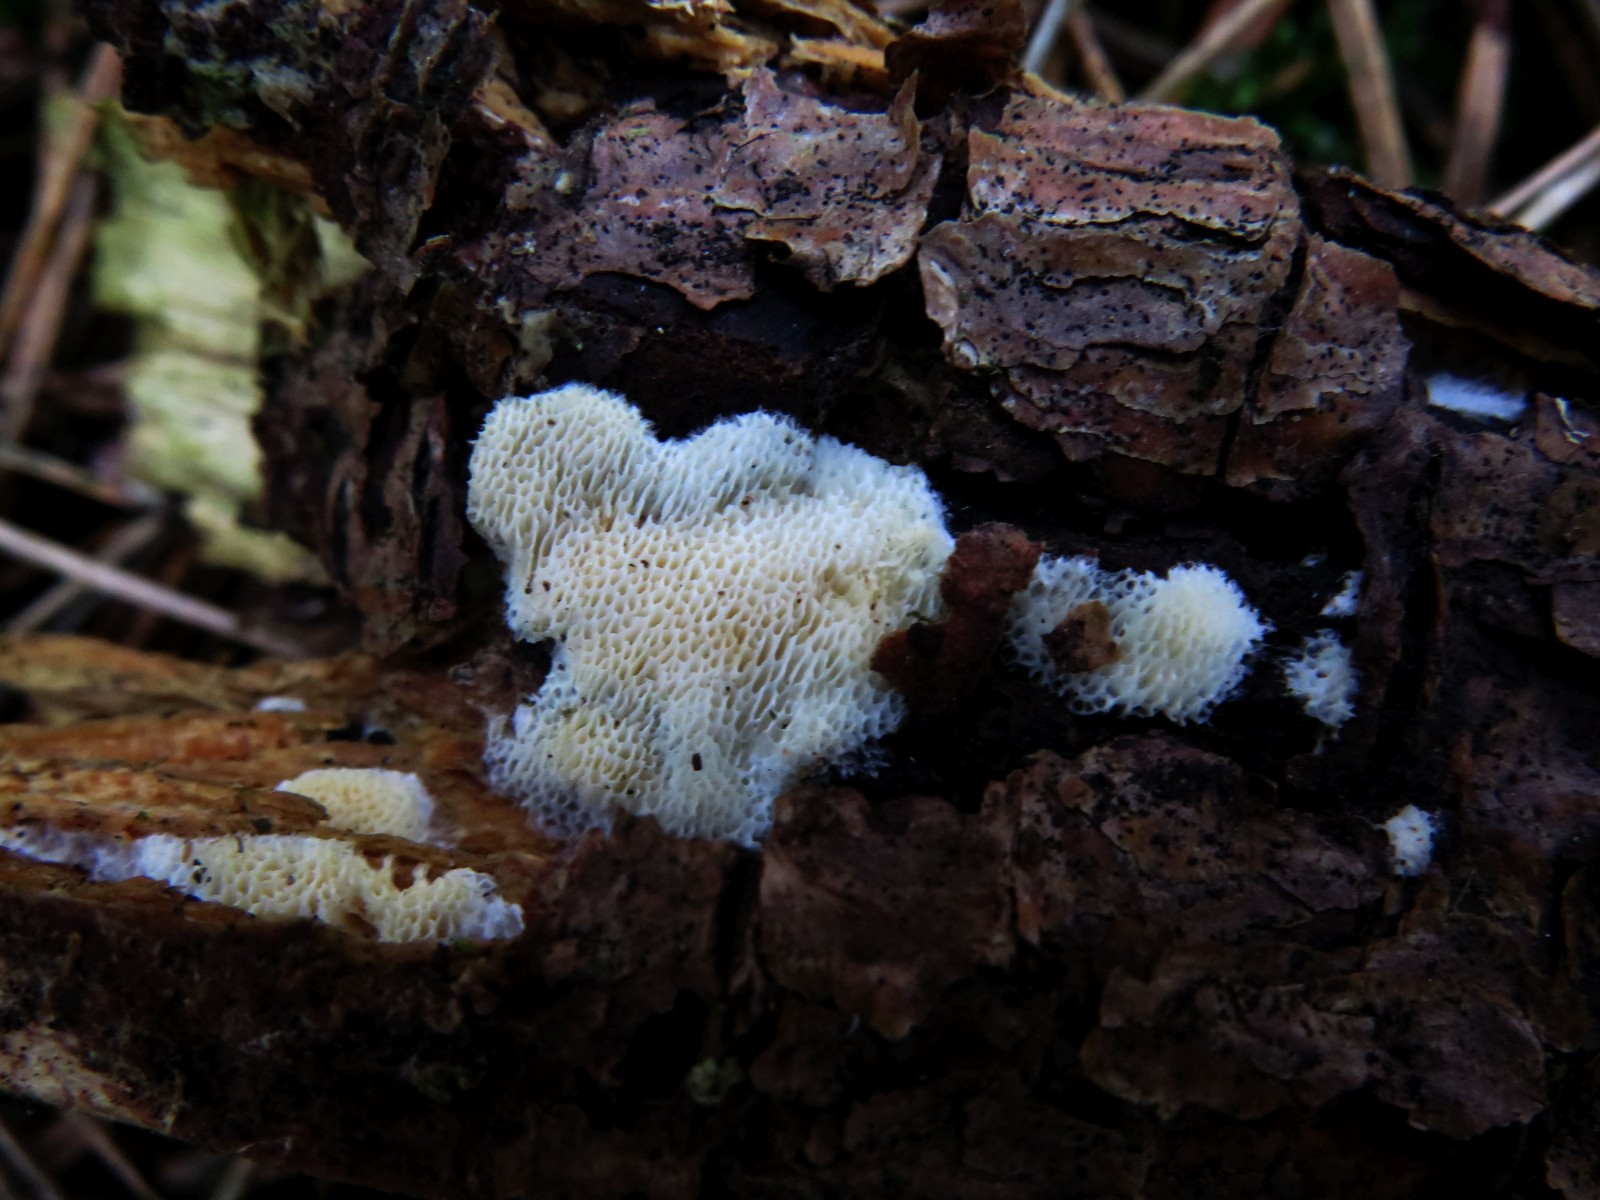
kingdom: Fungi
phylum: Basidiomycota
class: Agaricomycetes
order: Polyporales
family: Incrustoporiaceae
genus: Skeletocutis
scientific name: Skeletocutis amorpha
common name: orange krystalporesvamp
